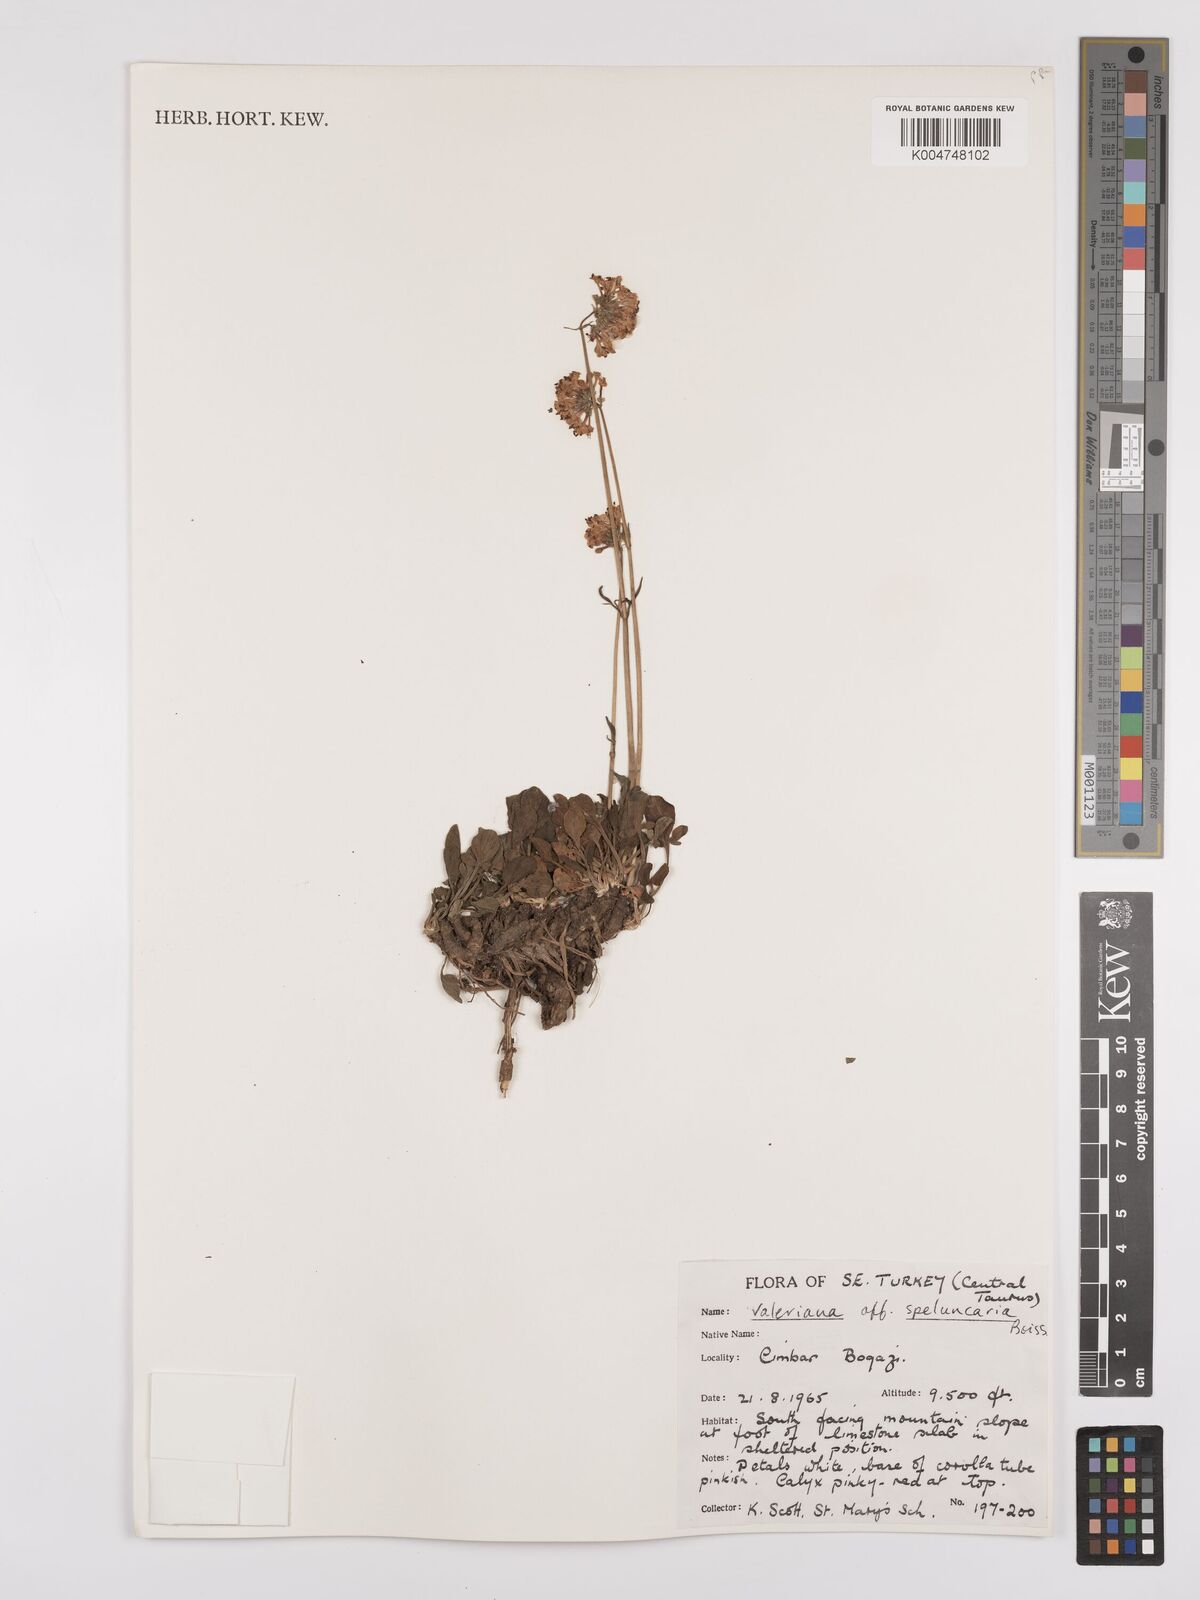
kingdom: Plantae
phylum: Tracheophyta
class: Magnoliopsida
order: Dipsacales
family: Caprifoliaceae
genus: Valeriana
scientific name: Valeriana petrophila
